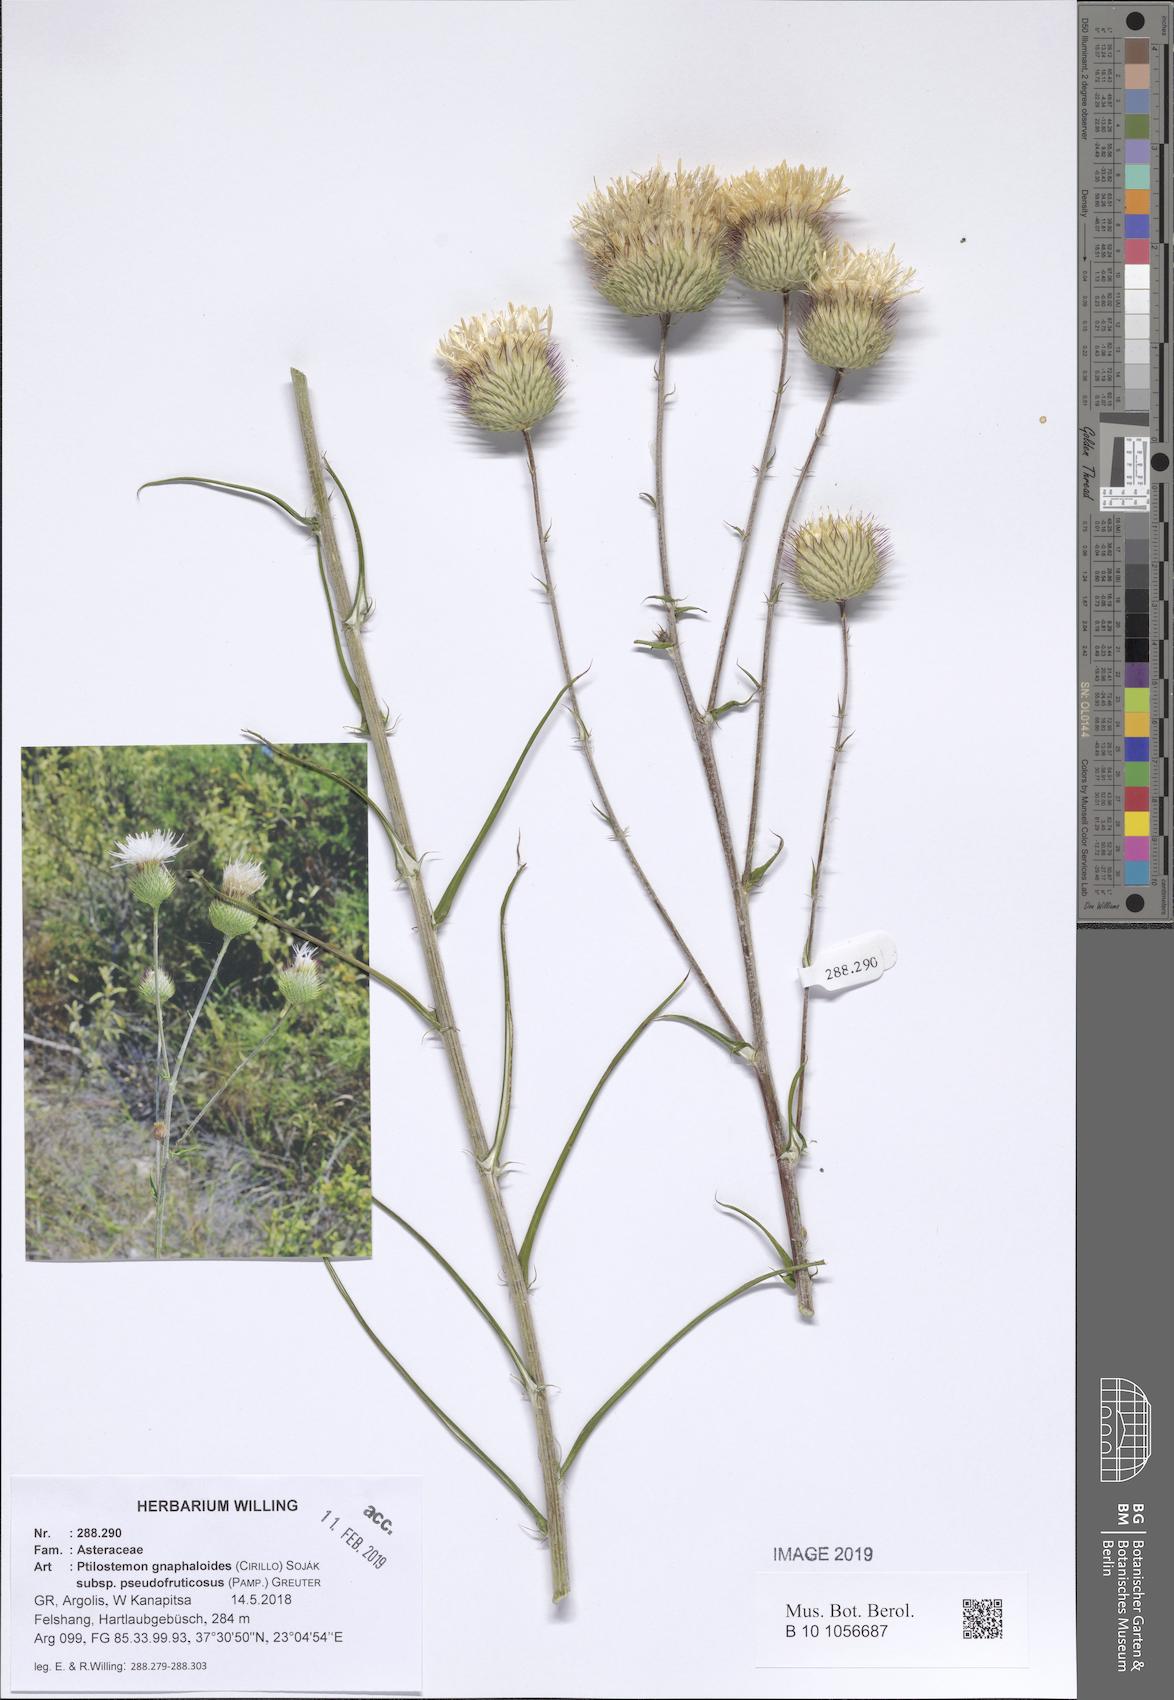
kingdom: Plantae
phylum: Tracheophyta
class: Magnoliopsida
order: Asterales
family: Asteraceae
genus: Ptilostemon
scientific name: Ptilostemon gnaphaloides
